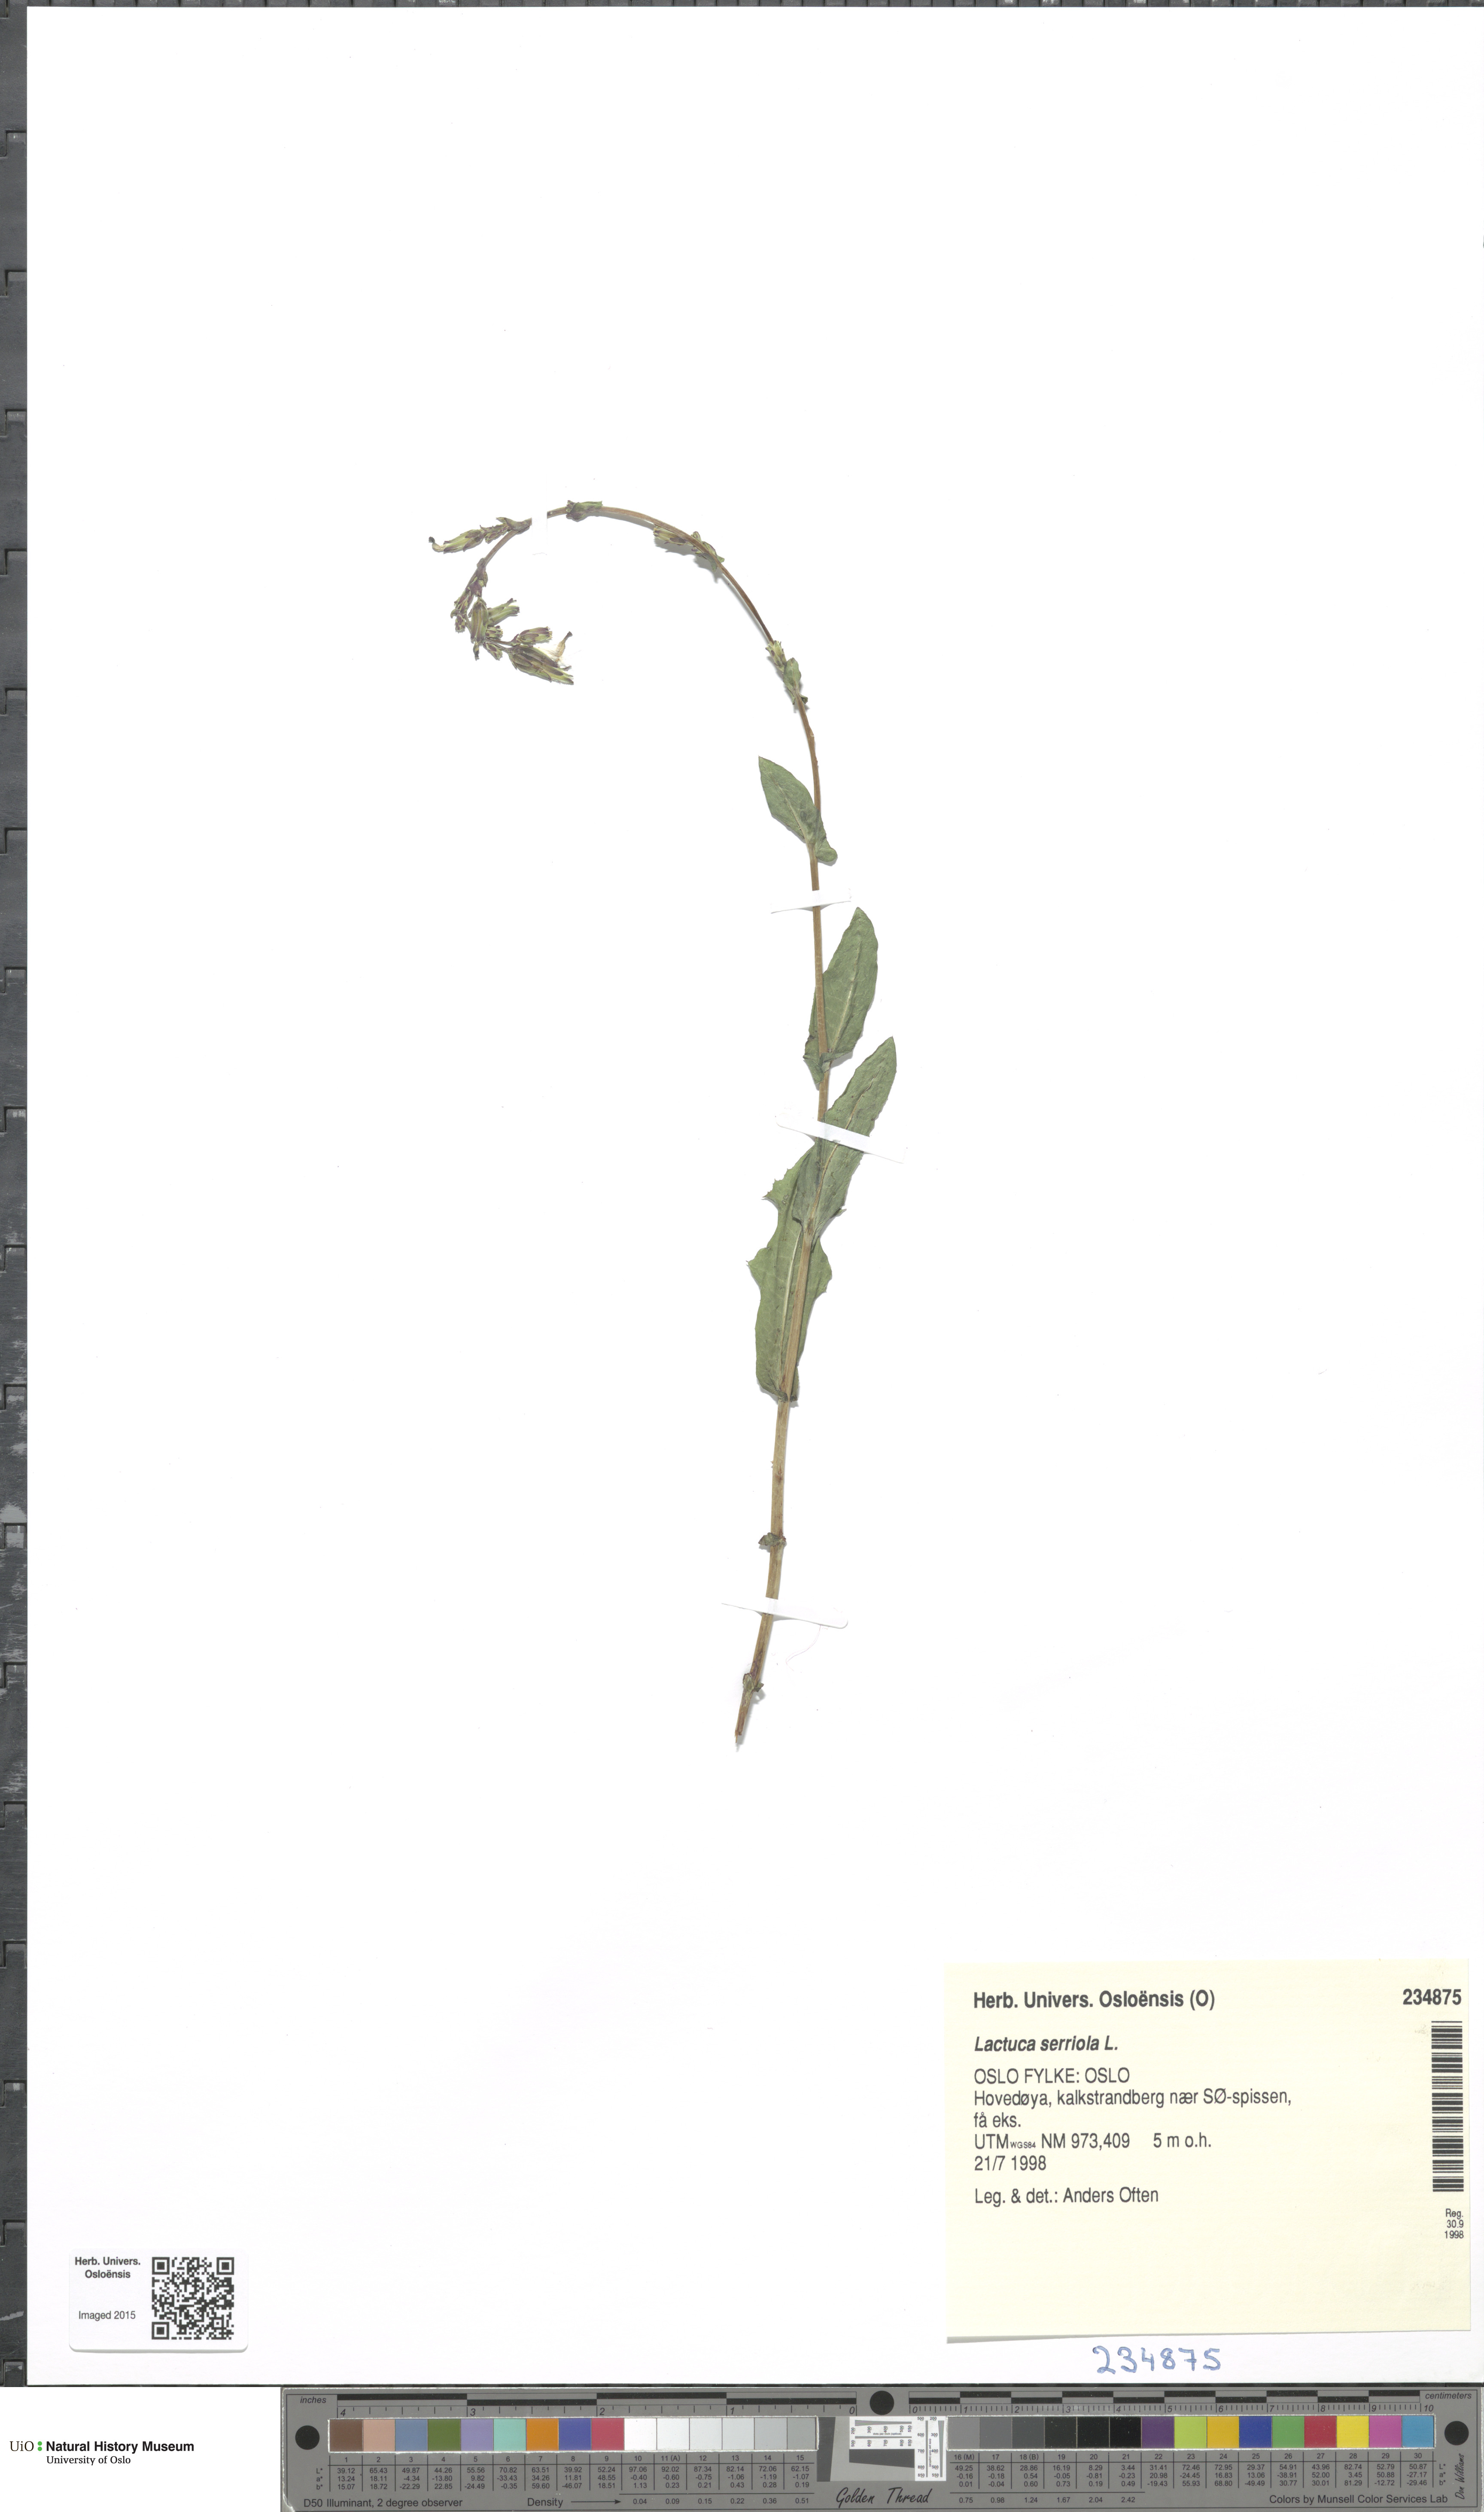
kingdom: Plantae
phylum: Tracheophyta
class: Magnoliopsida
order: Asterales
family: Asteraceae
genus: Lactuca
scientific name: Lactuca serriola
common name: Prickly lettuce
